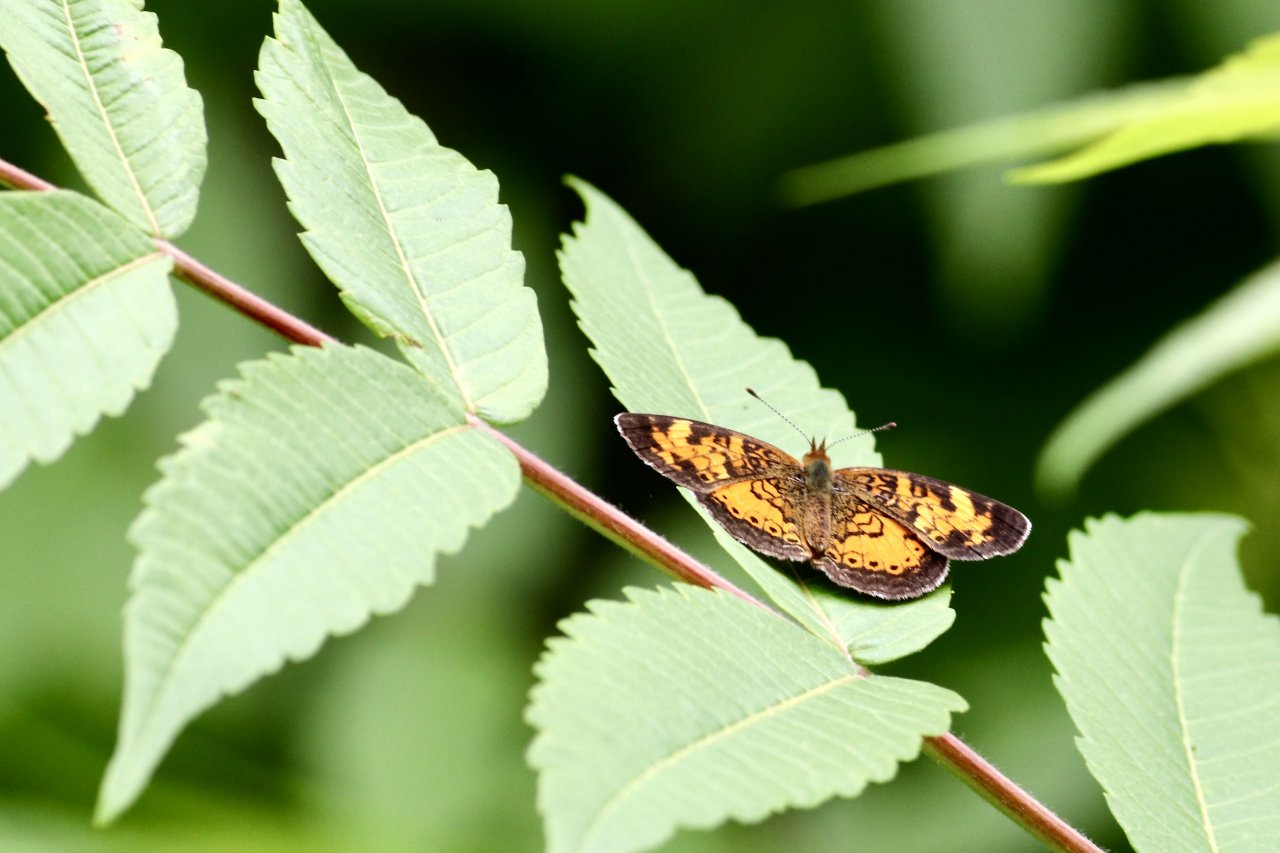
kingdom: Animalia
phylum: Arthropoda
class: Insecta
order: Lepidoptera
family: Nymphalidae
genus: Phyciodes
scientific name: Phyciodes tharos
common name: Northern Crescent
